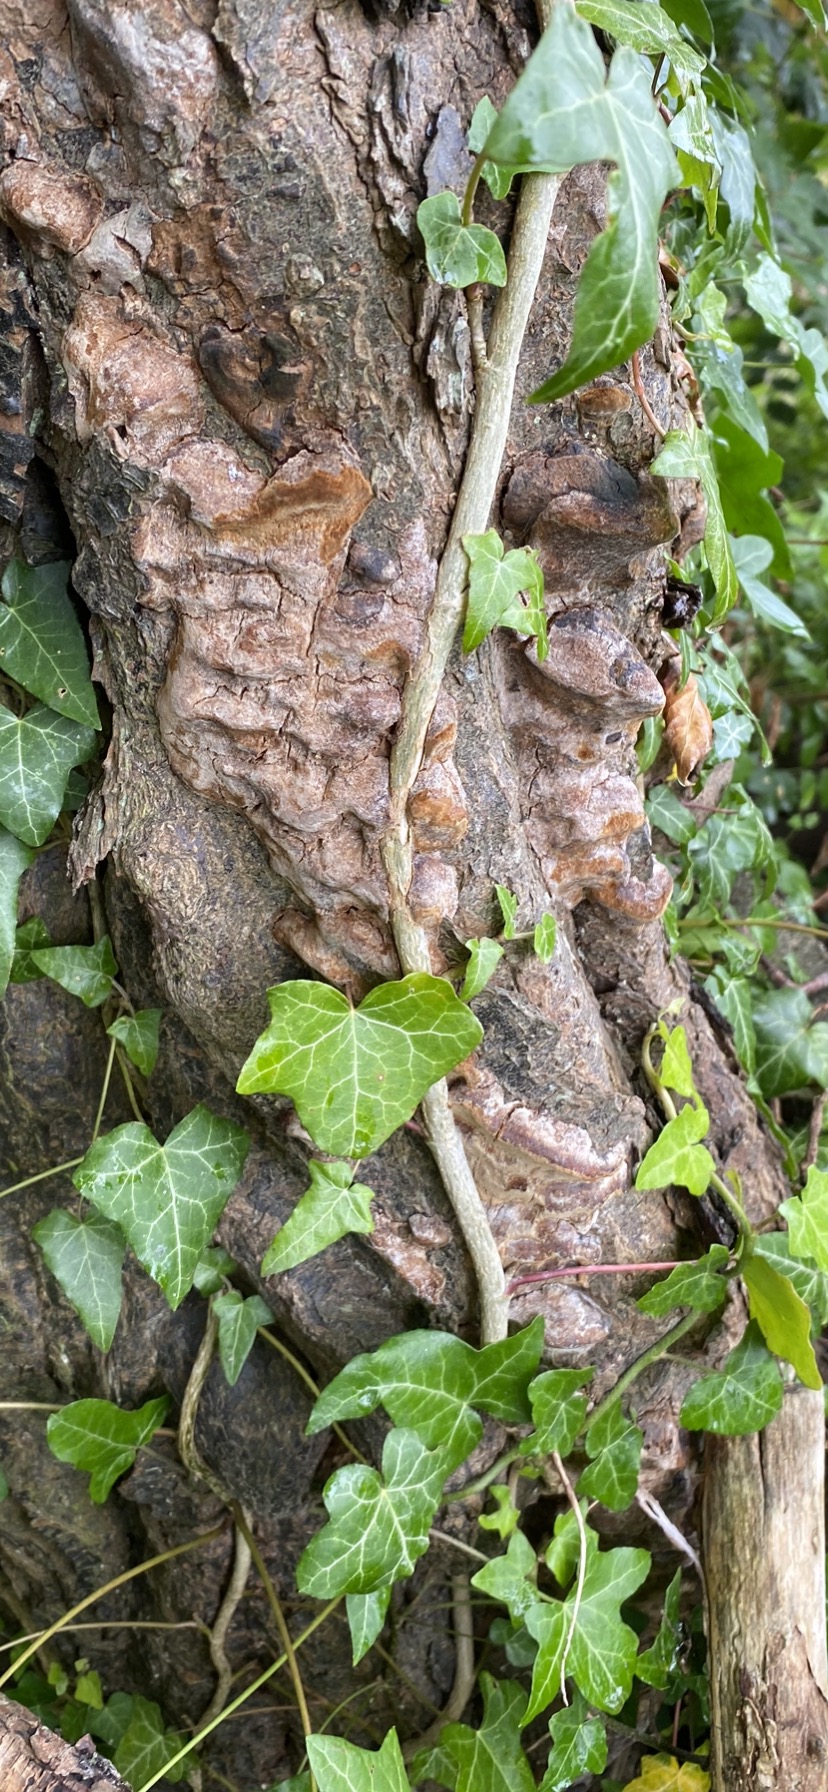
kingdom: Fungi
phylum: Basidiomycota
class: Agaricomycetes
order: Hymenochaetales
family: Hymenochaetaceae
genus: Phellinus
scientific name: Phellinus pomaceus
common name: blomme-ildporesvamp
